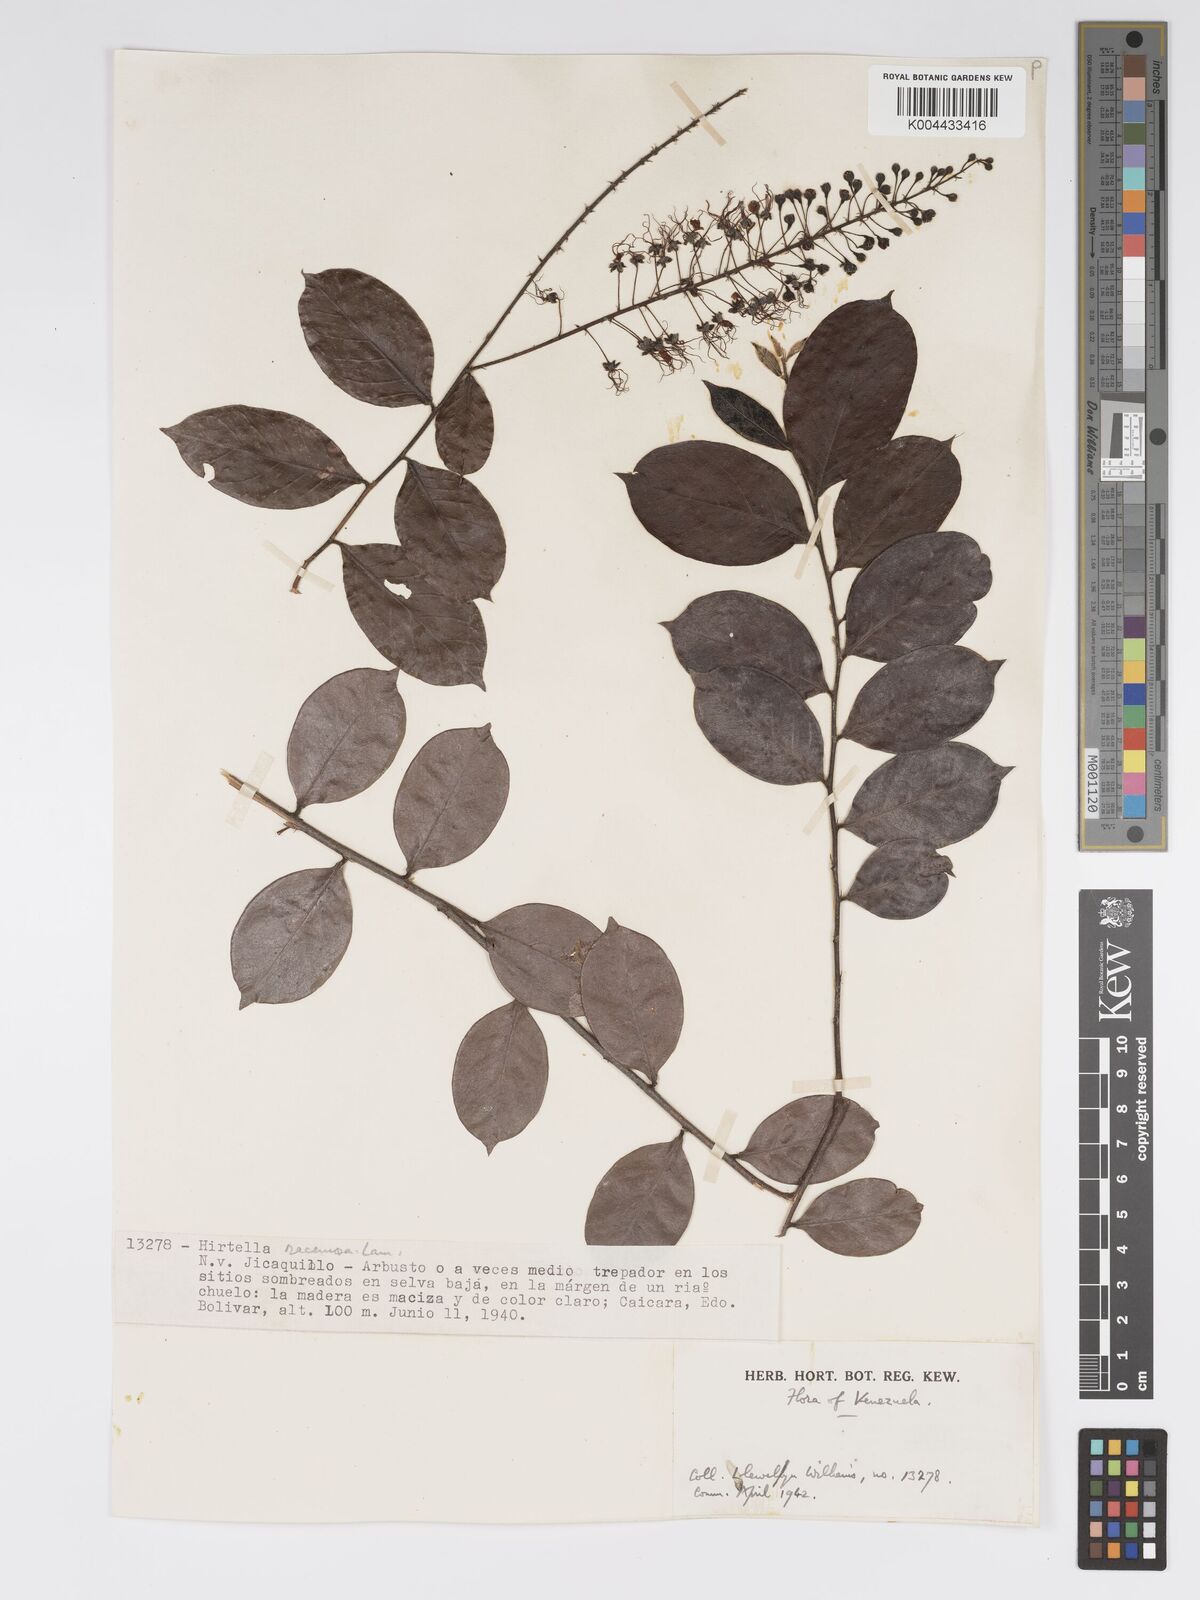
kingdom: Plantae
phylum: Tracheophyta
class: Magnoliopsida
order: Malpighiales
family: Chrysobalanaceae
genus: Hirtella
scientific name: Hirtella racemosa
